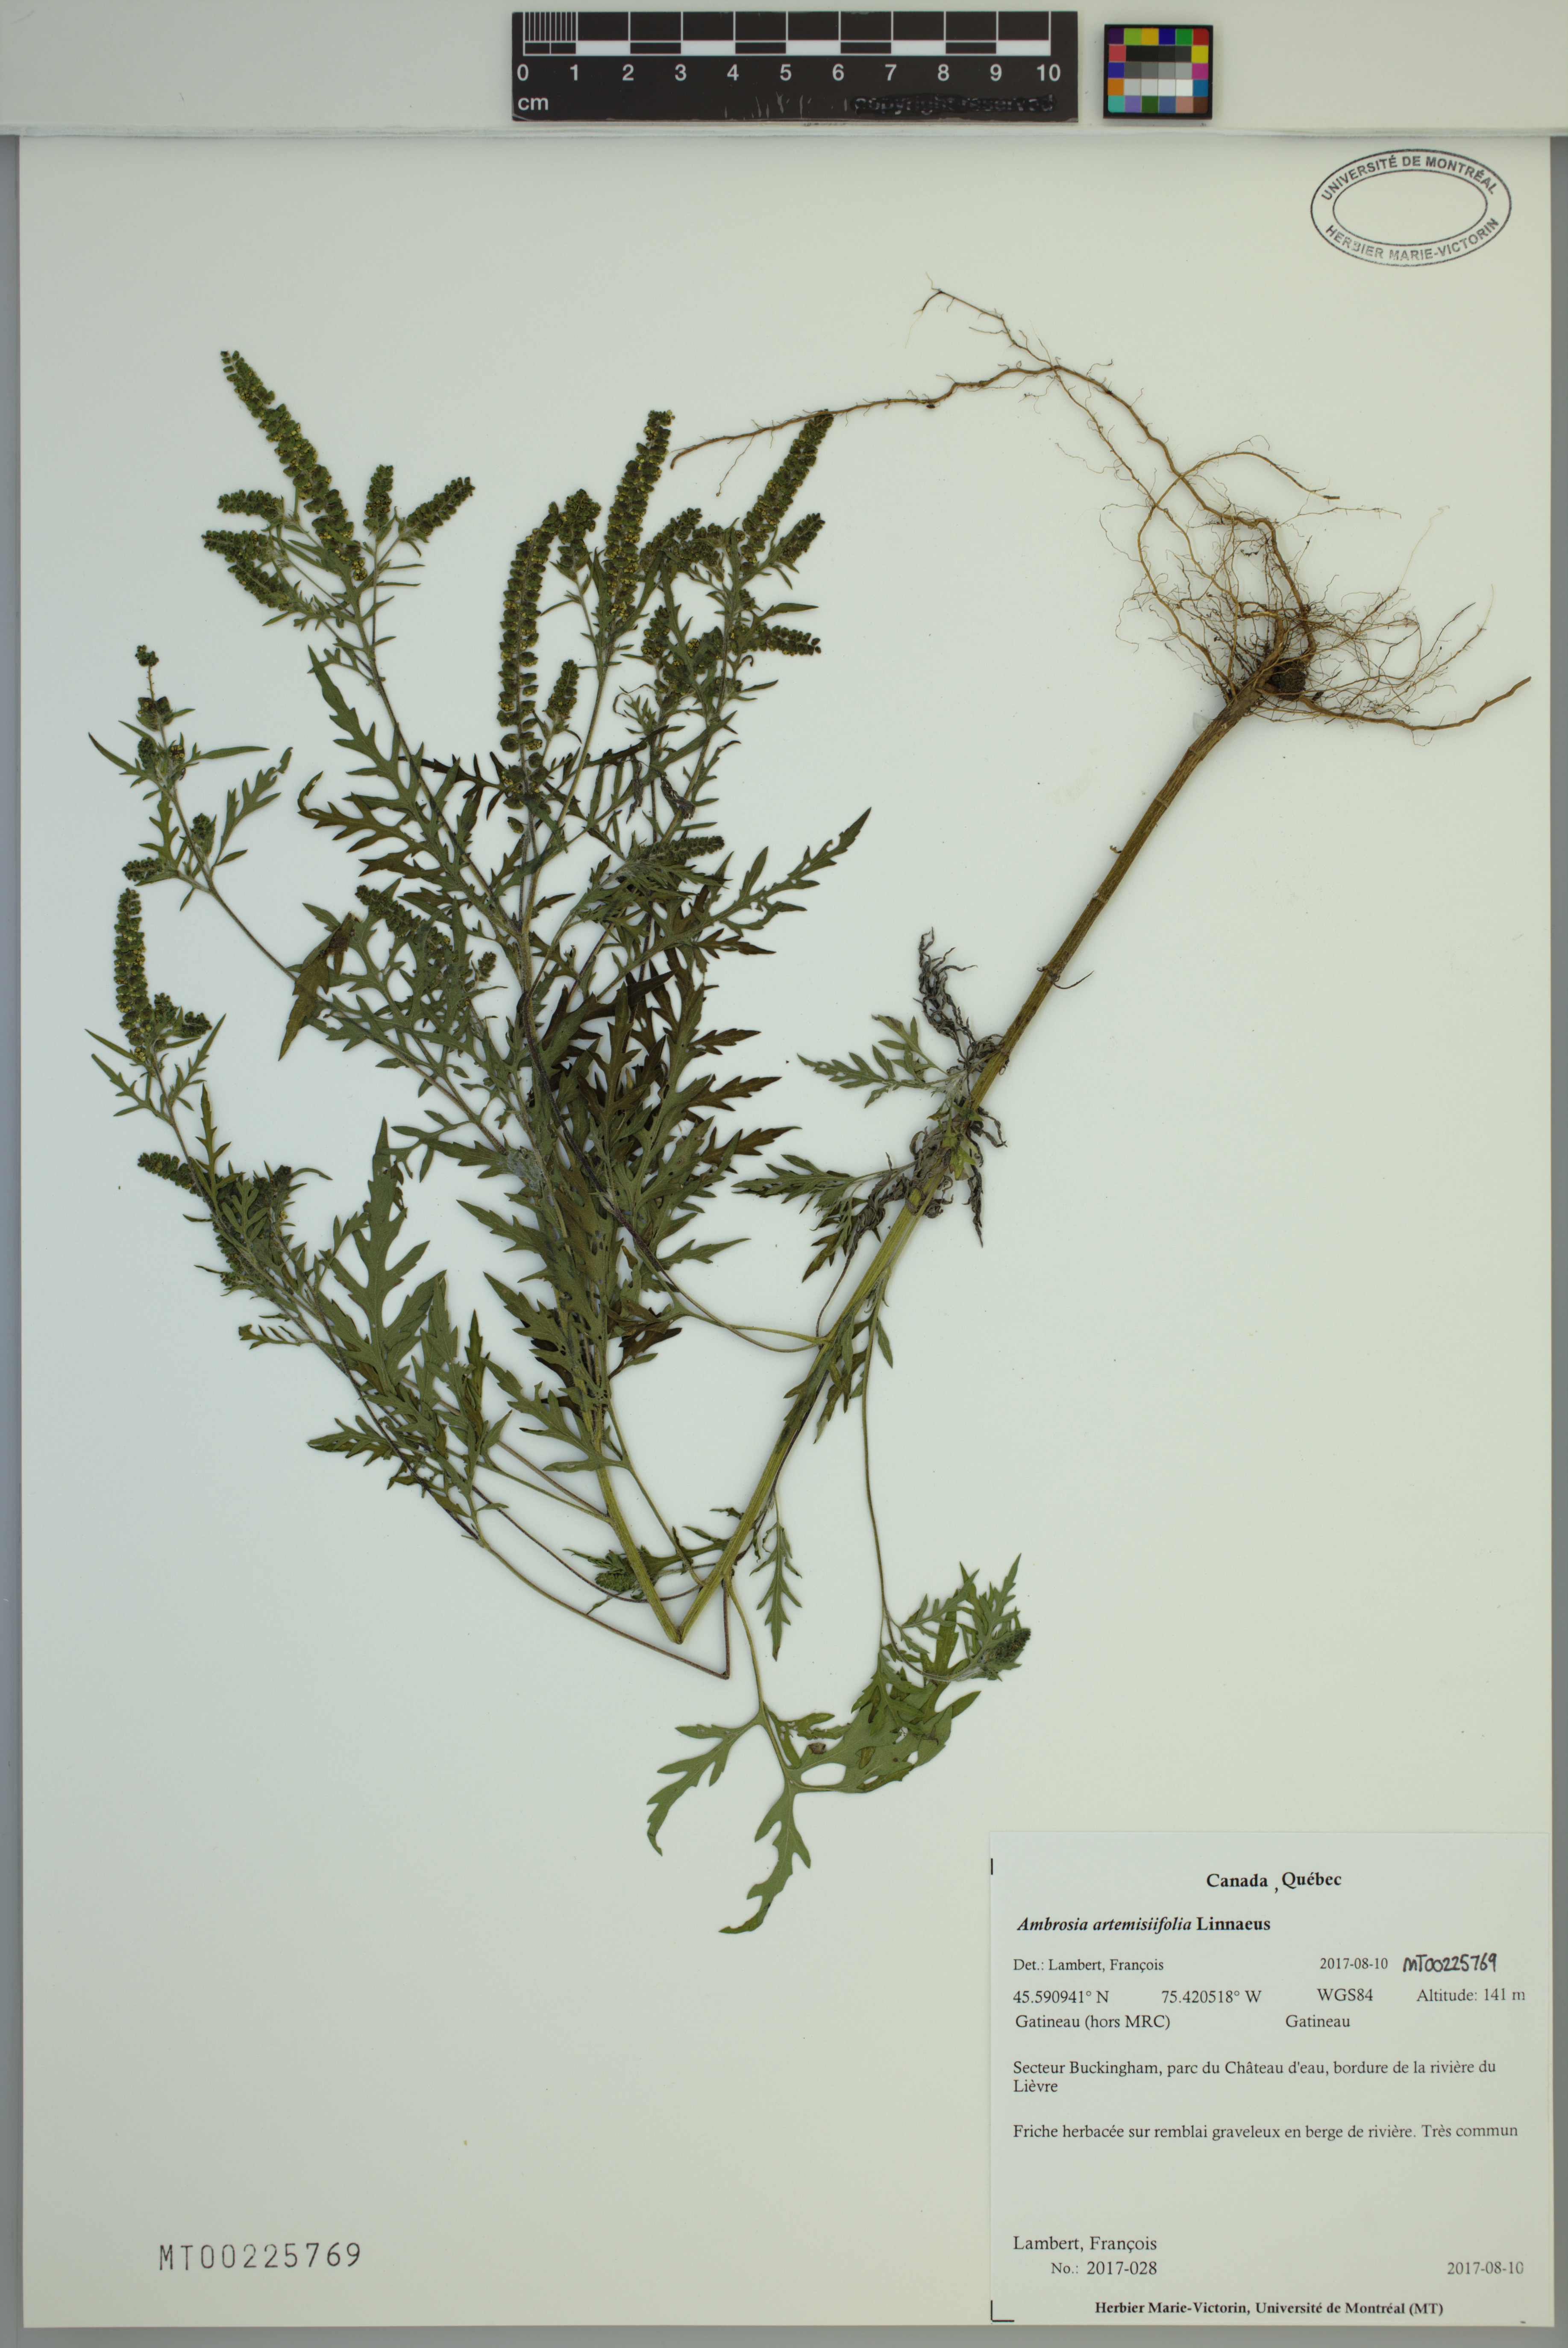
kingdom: Plantae
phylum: Tracheophyta
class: Magnoliopsida
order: Asterales
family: Asteraceae
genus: Ambrosia
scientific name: Ambrosia artemisiifolia
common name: Annual ragweed
